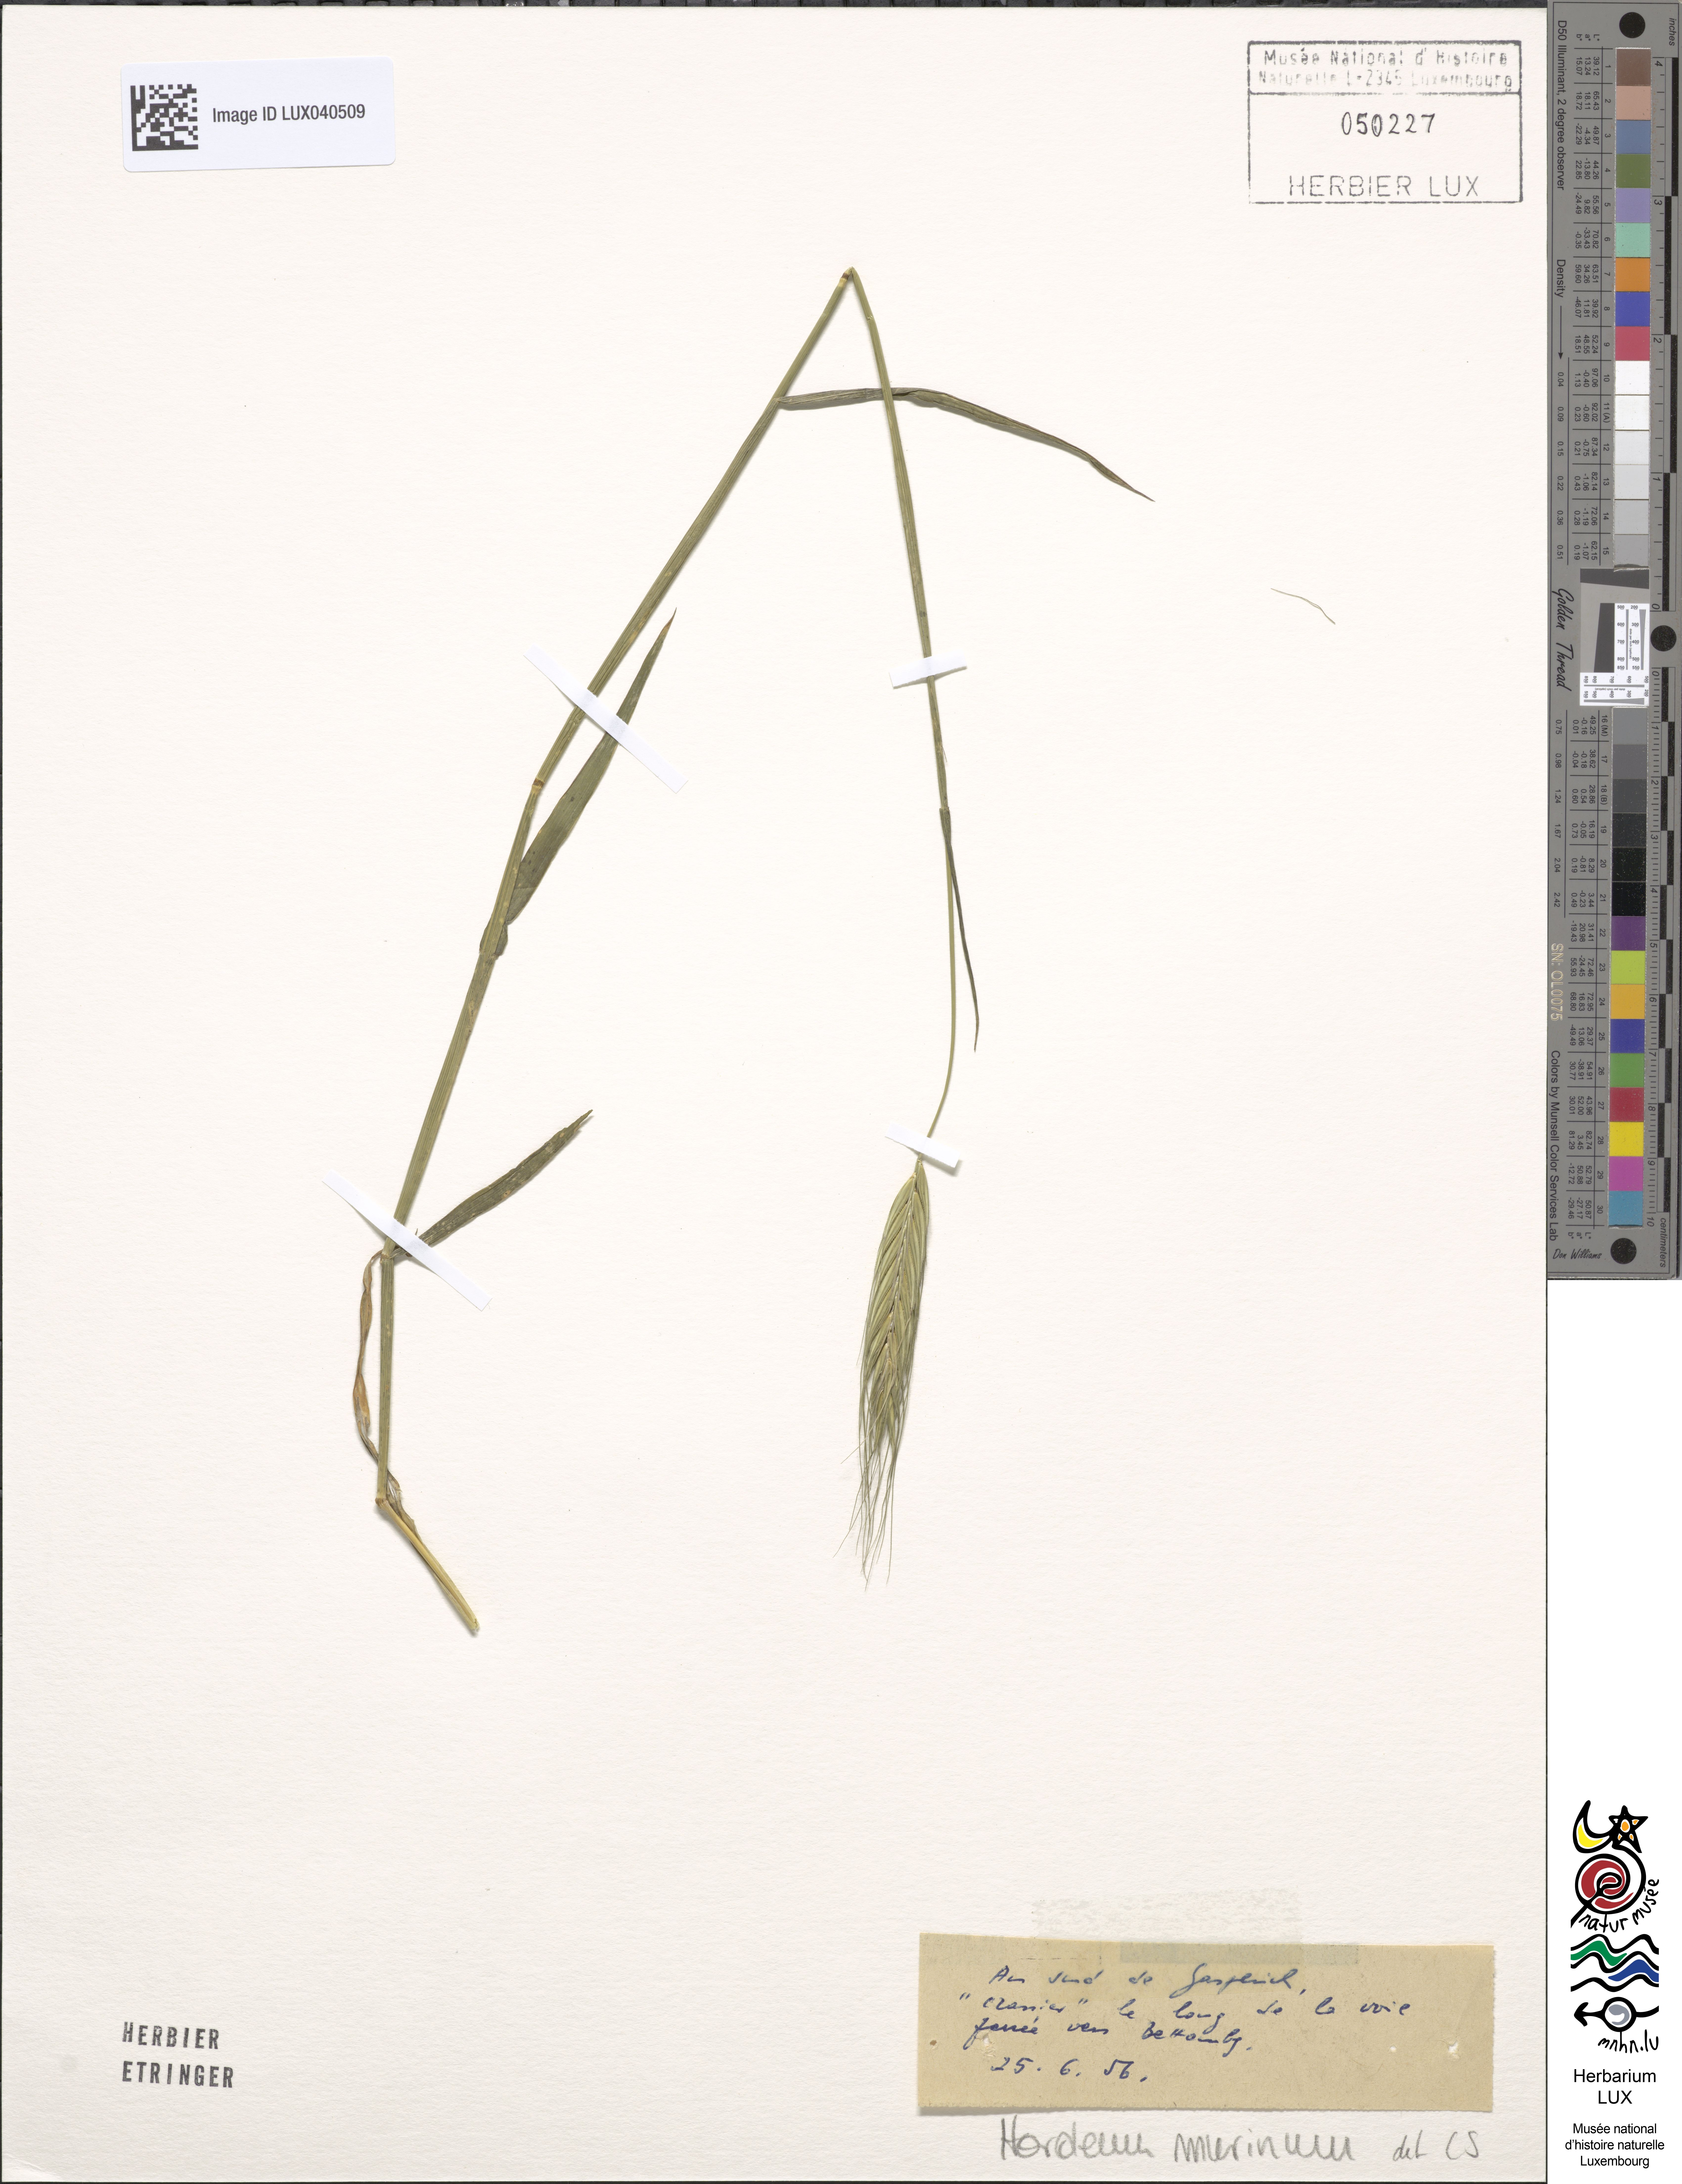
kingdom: Plantae
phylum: Tracheophyta
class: Liliopsida
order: Poales
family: Poaceae
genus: Hordeum
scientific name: Hordeum murinum
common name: Wall barley
